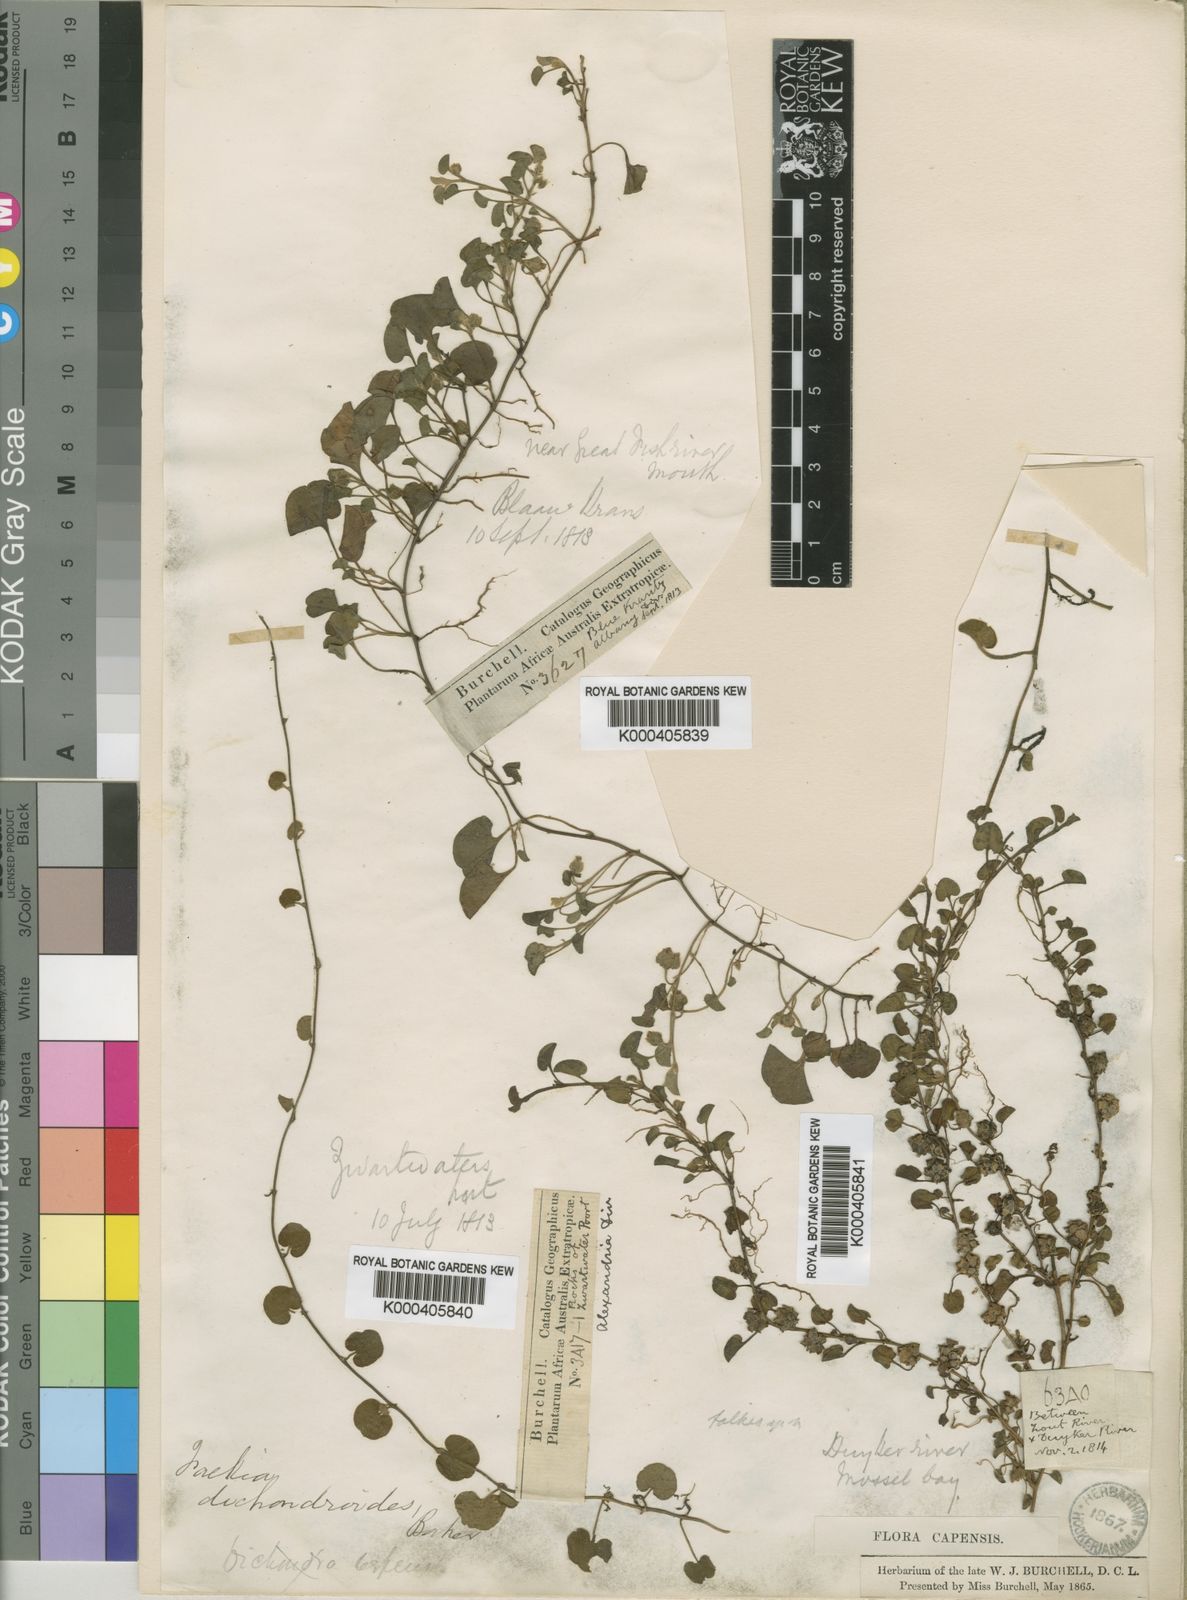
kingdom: Plantae
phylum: Tracheophyta
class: Magnoliopsida
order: Solanales
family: Convolvulaceae
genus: Falkia
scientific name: Falkia repens
